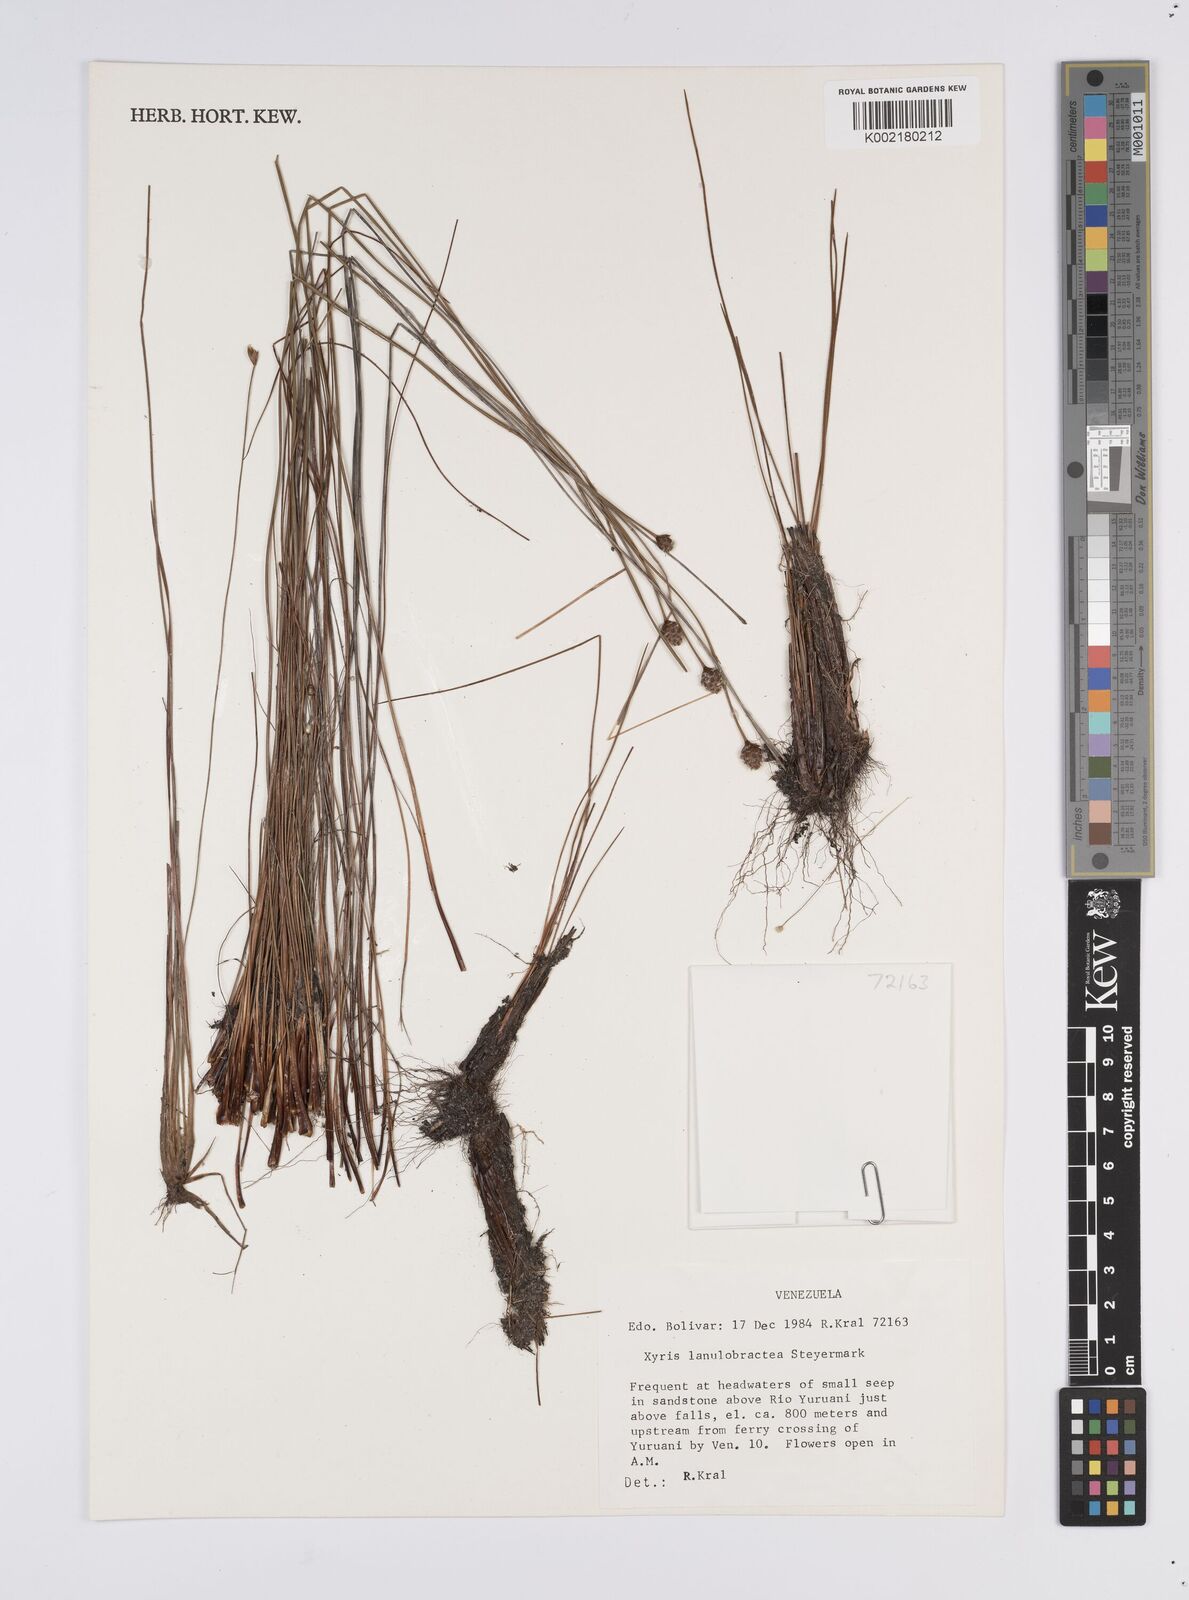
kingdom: Plantae
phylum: Tracheophyta
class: Liliopsida
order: Poales
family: Xyridaceae
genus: Xyris
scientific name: Xyris lanulobractea
